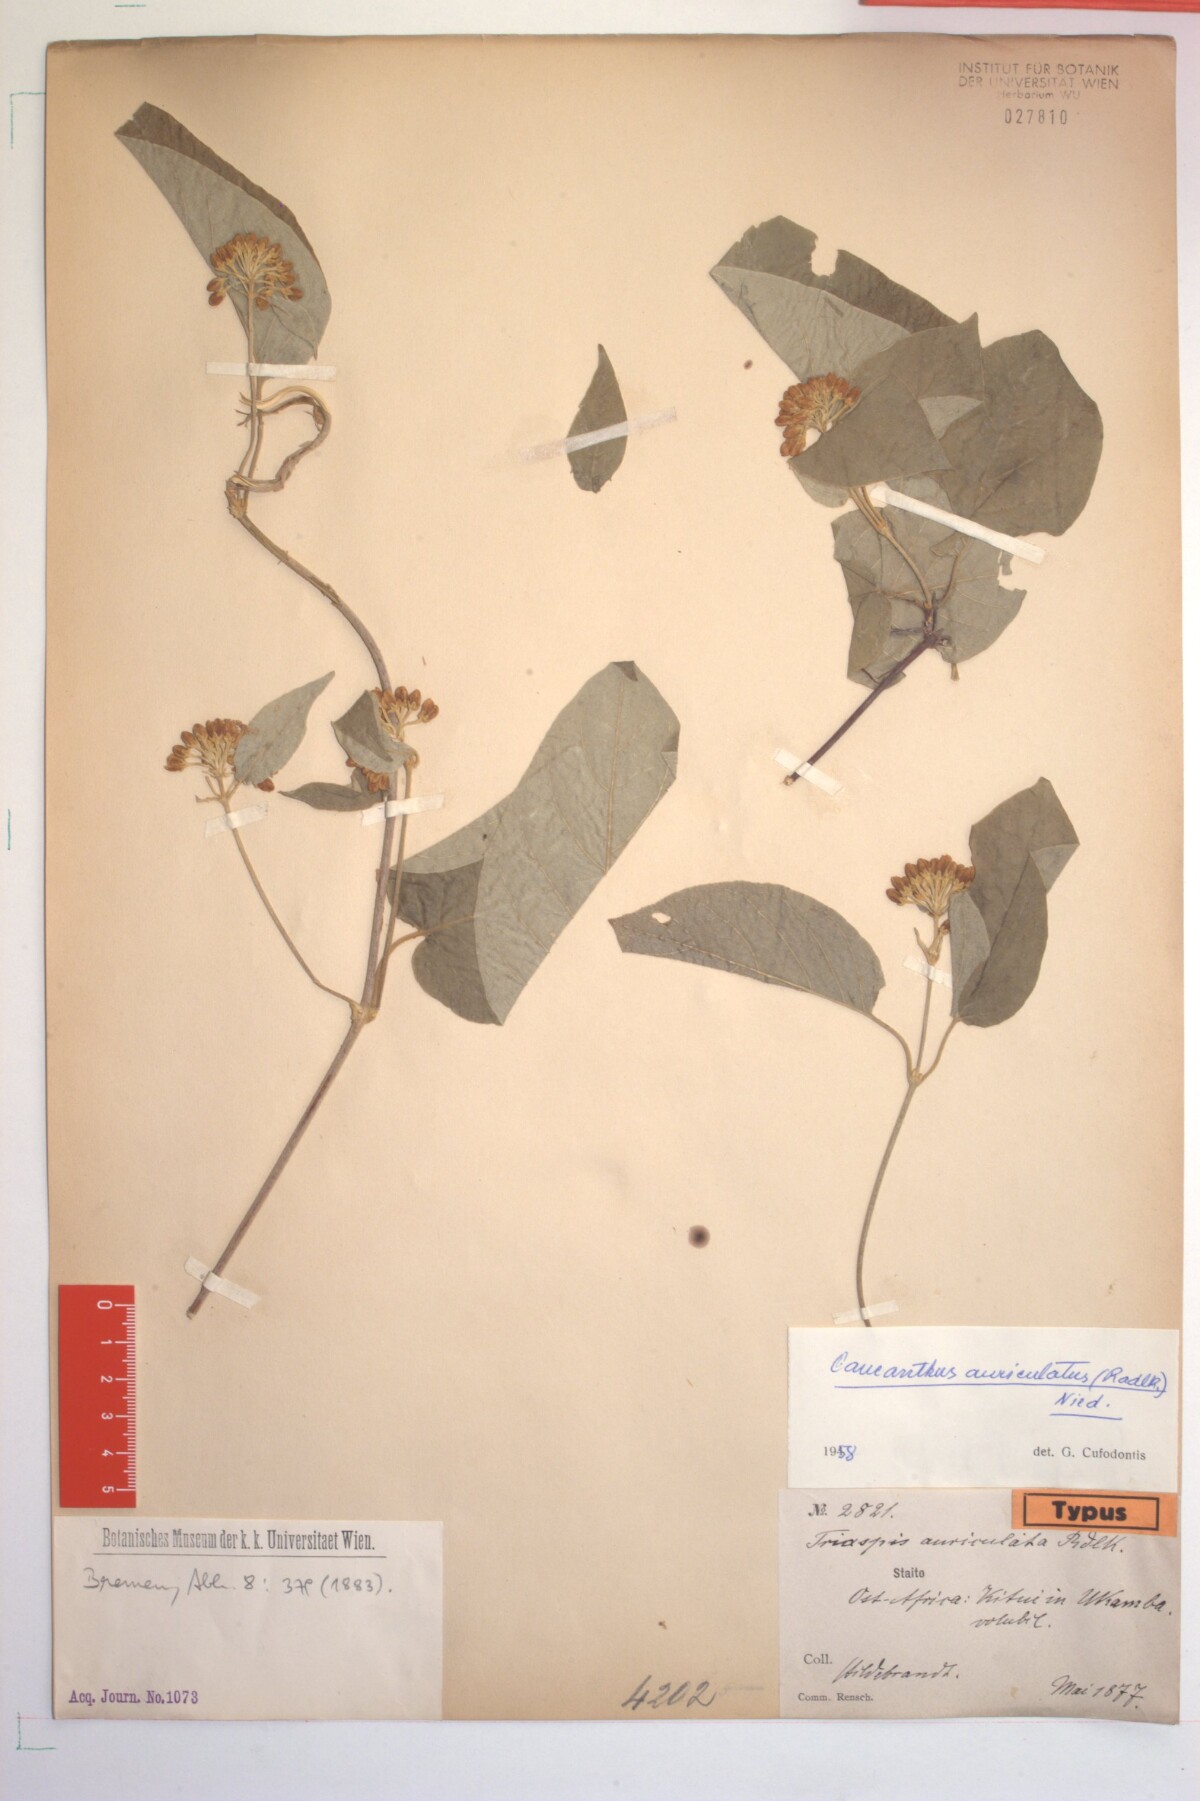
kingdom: Plantae
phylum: Tracheophyta
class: Magnoliopsida
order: Malpighiales
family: Malpighiaceae
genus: Caucanthus
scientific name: Caucanthus auriculatus
